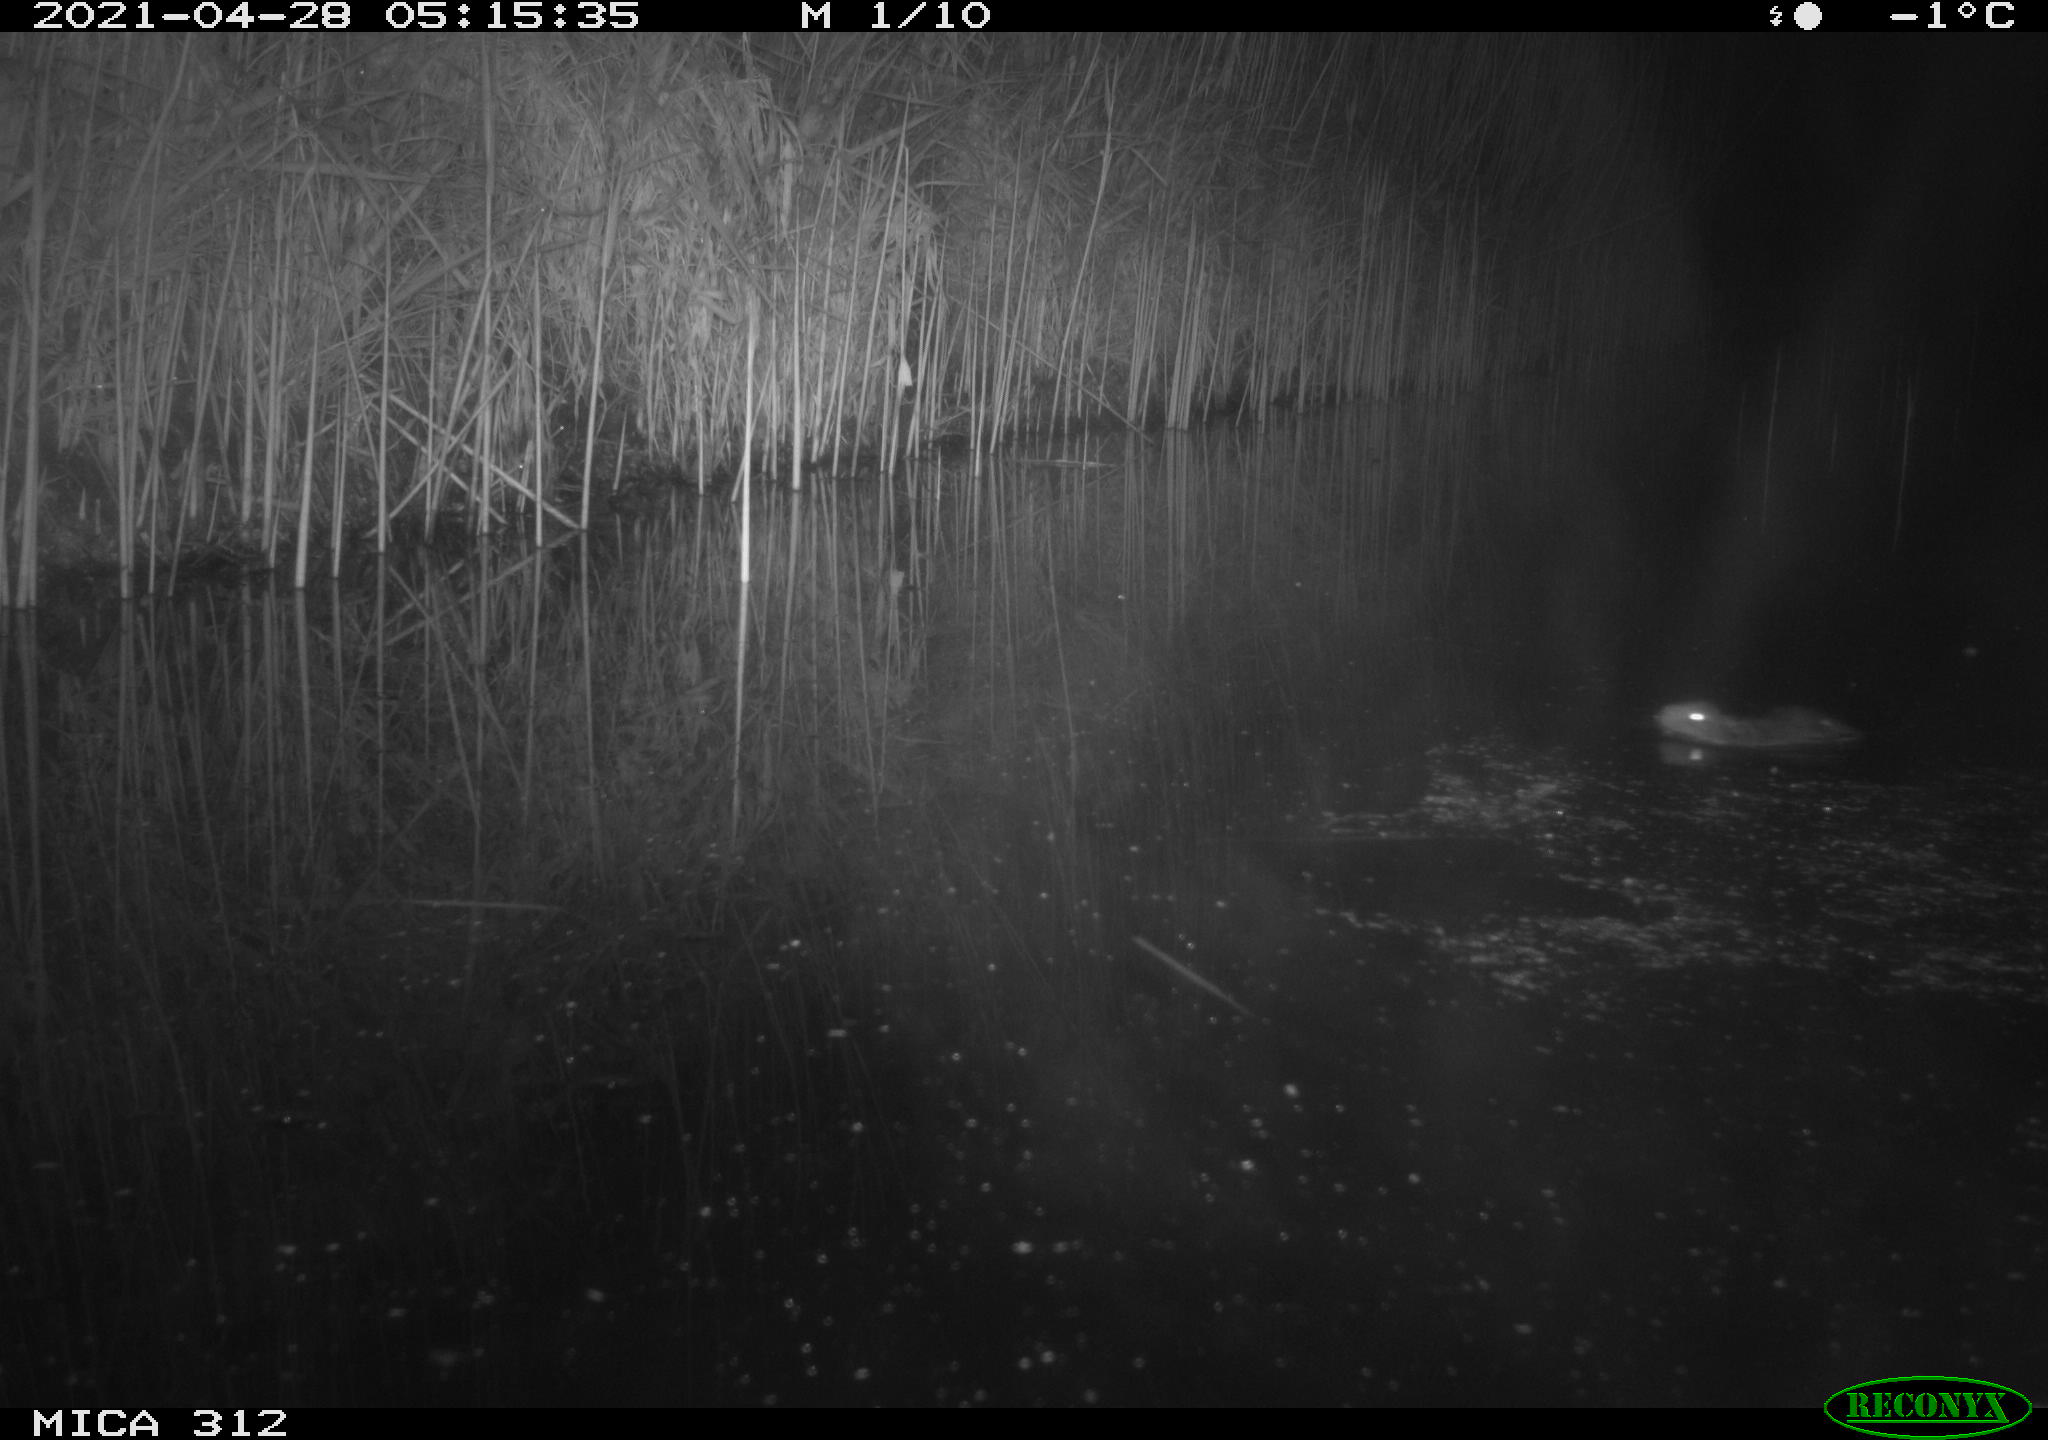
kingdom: Animalia
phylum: Chordata
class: Mammalia
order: Rodentia
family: Muridae
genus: Rattus
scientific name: Rattus norvegicus
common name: Brown rat
